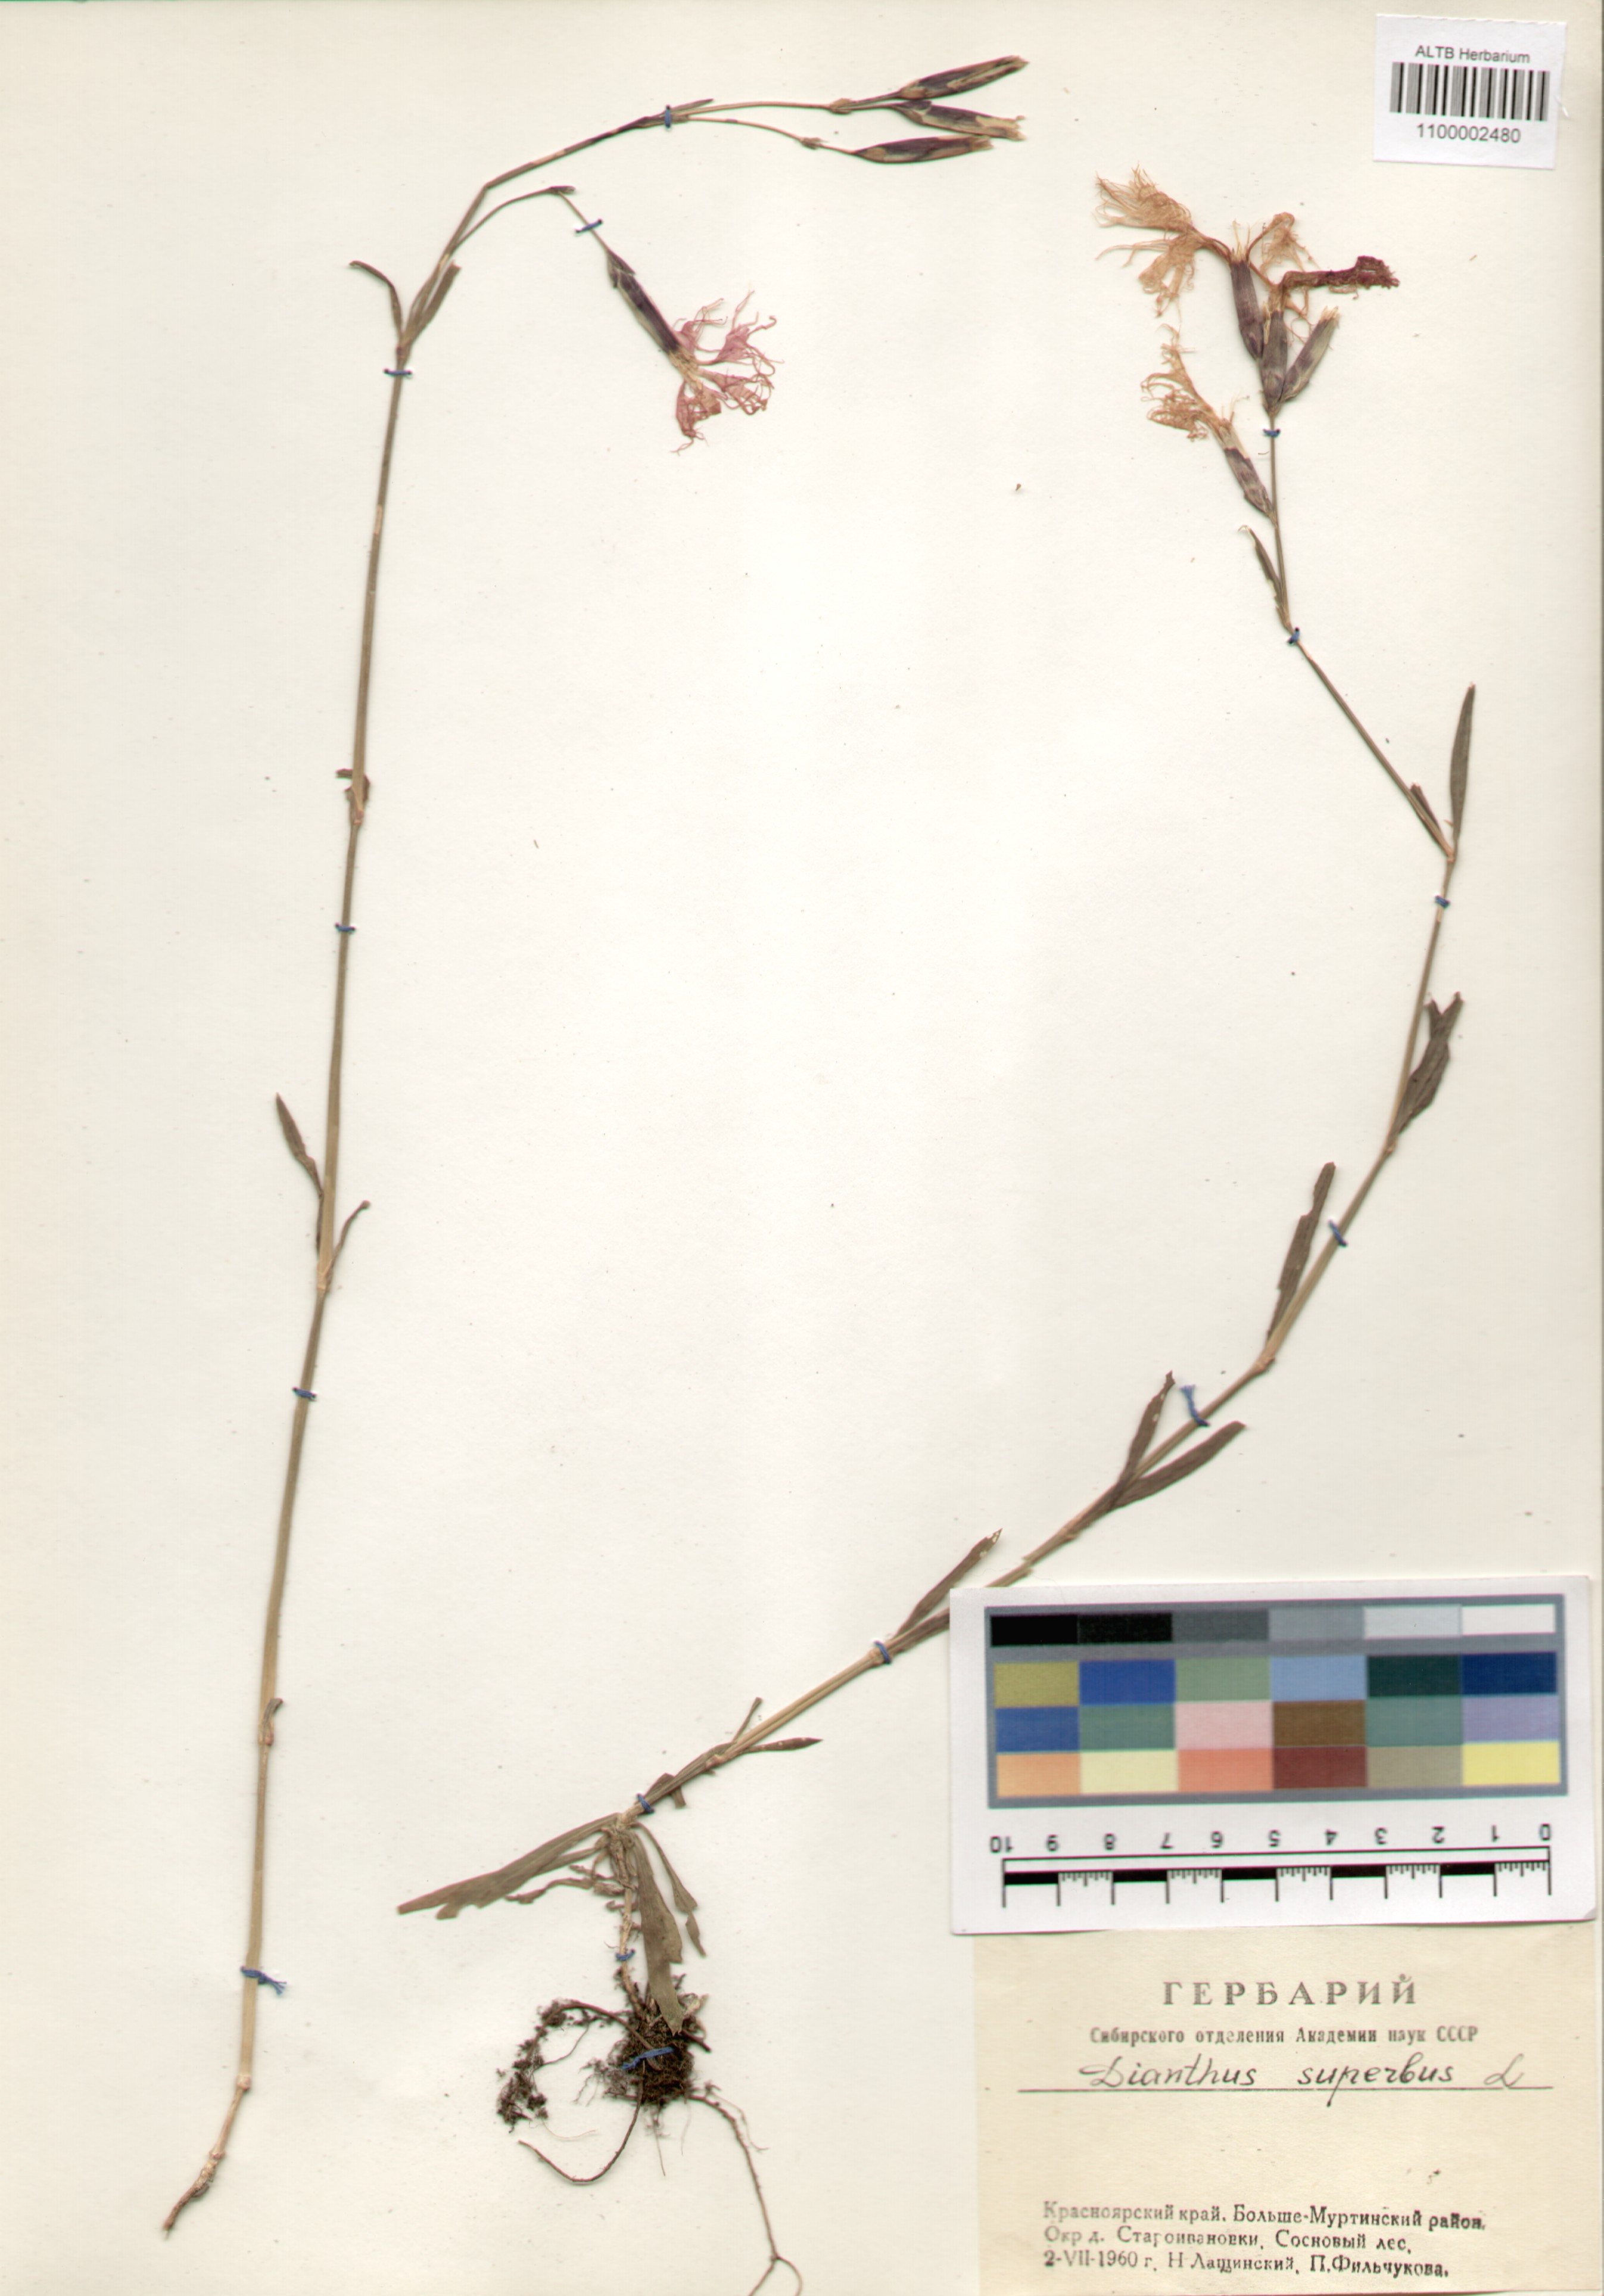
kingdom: Plantae
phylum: Tracheophyta
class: Magnoliopsida
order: Caryophyllales
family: Caryophyllaceae
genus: Dianthus
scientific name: Dianthus superbus
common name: Fringed pink
